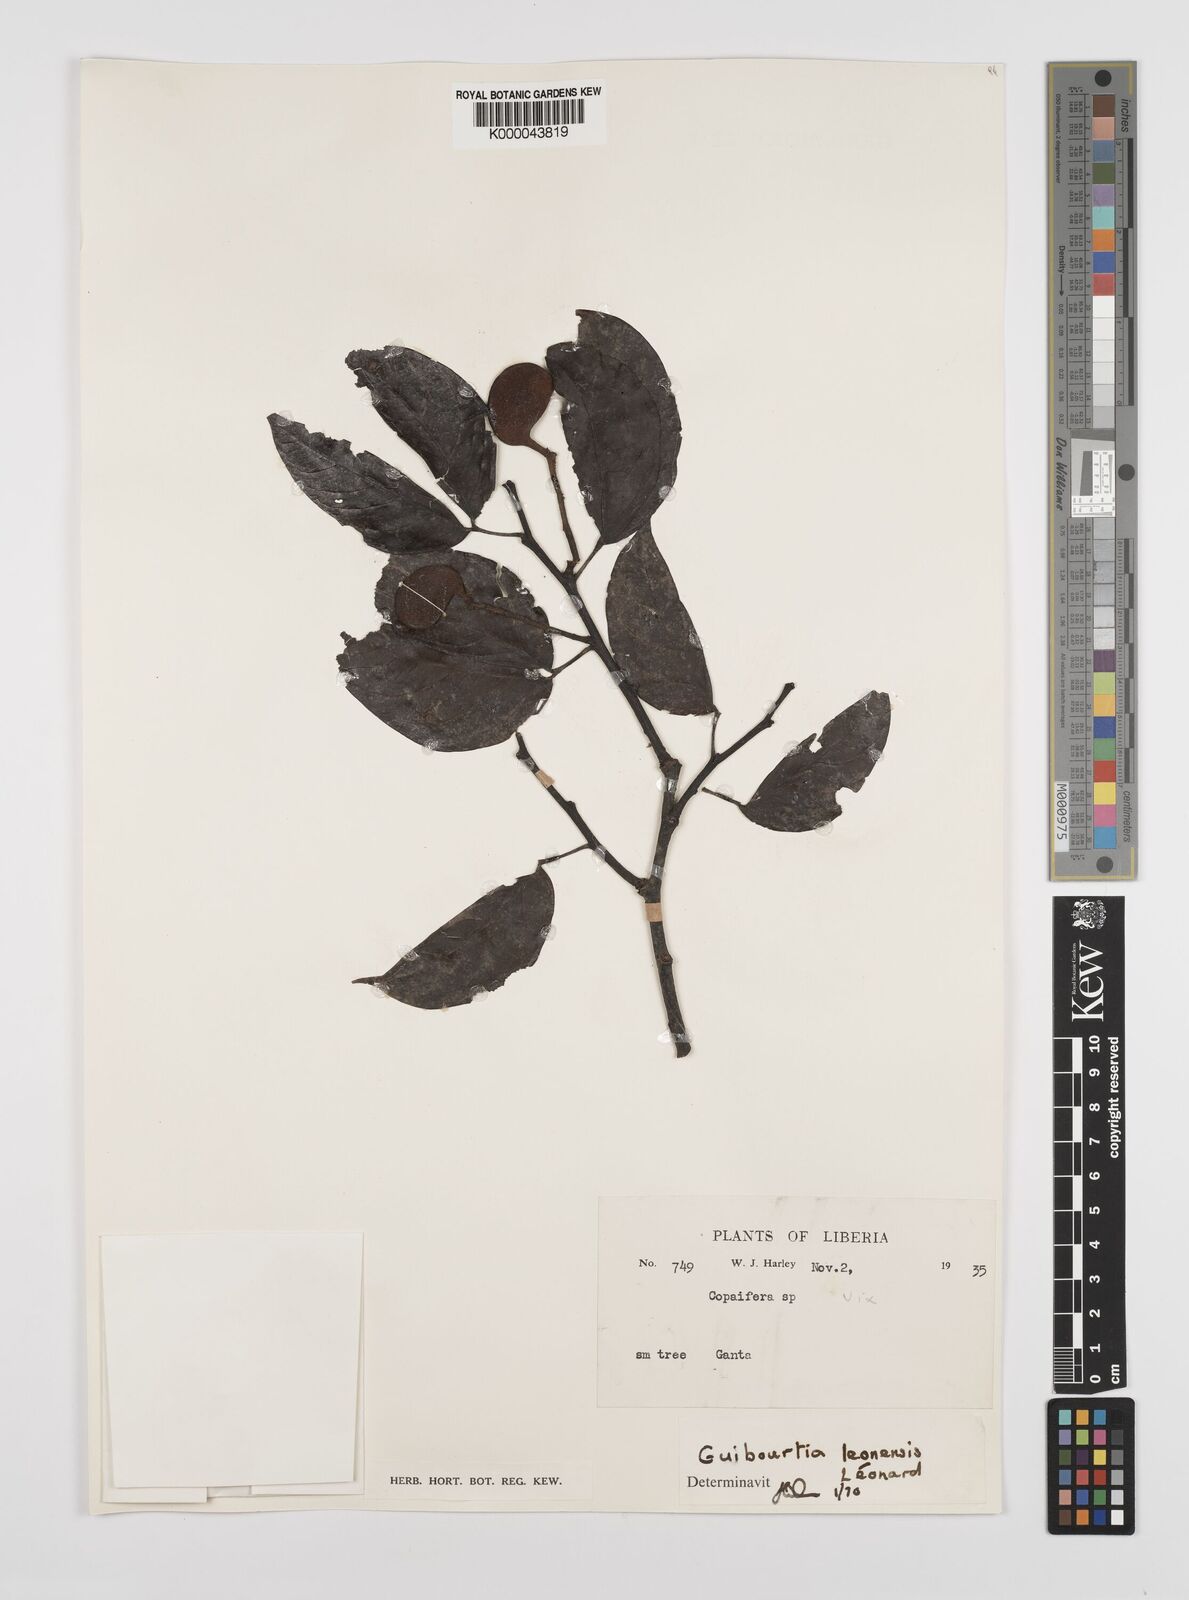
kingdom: Plantae
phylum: Tracheophyta
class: Magnoliopsida
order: Fabales
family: Fabaceae
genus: Guibourtia
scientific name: Guibourtia
